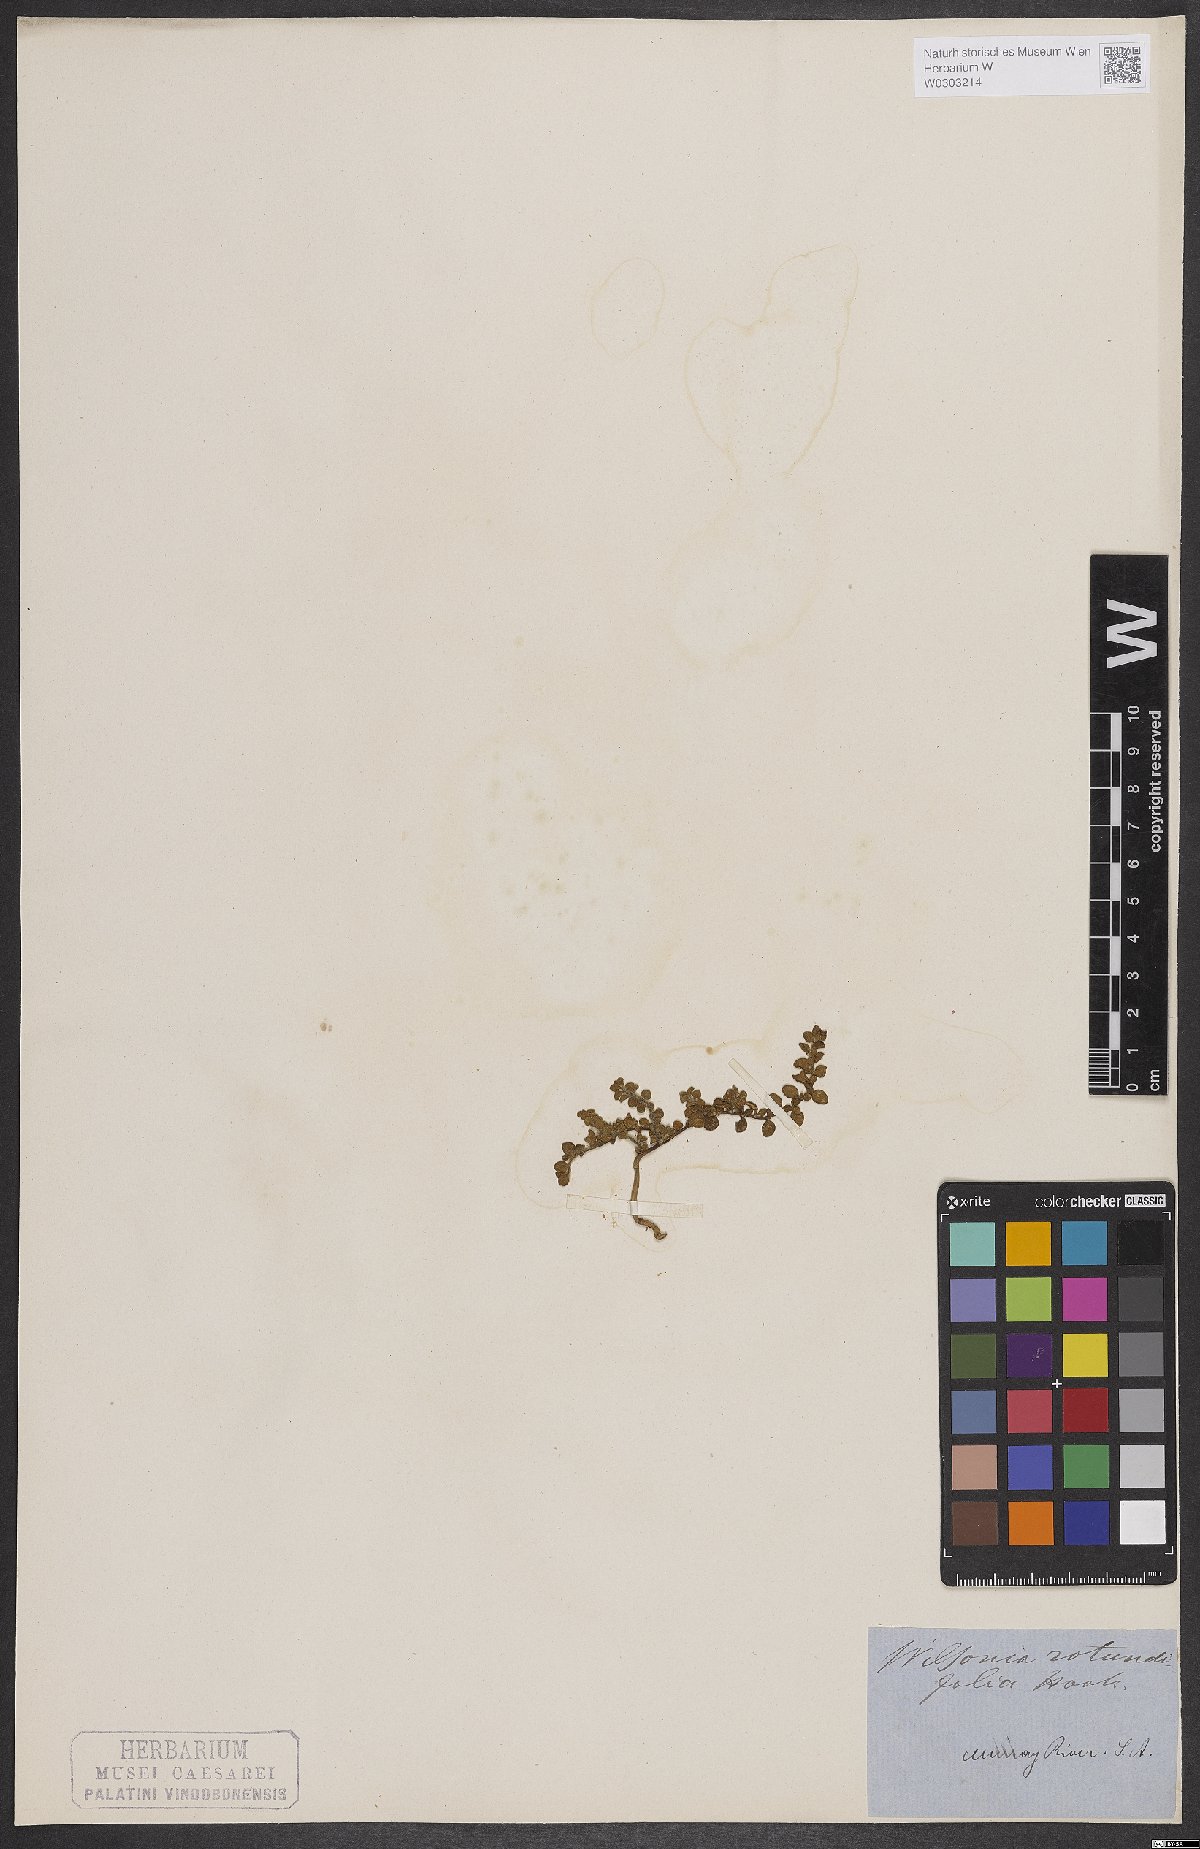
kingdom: Plantae
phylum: Tracheophyta
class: Magnoliopsida
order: Solanales
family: Convolvulaceae
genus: Wilsonia
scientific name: Wilsonia rotundifolia
